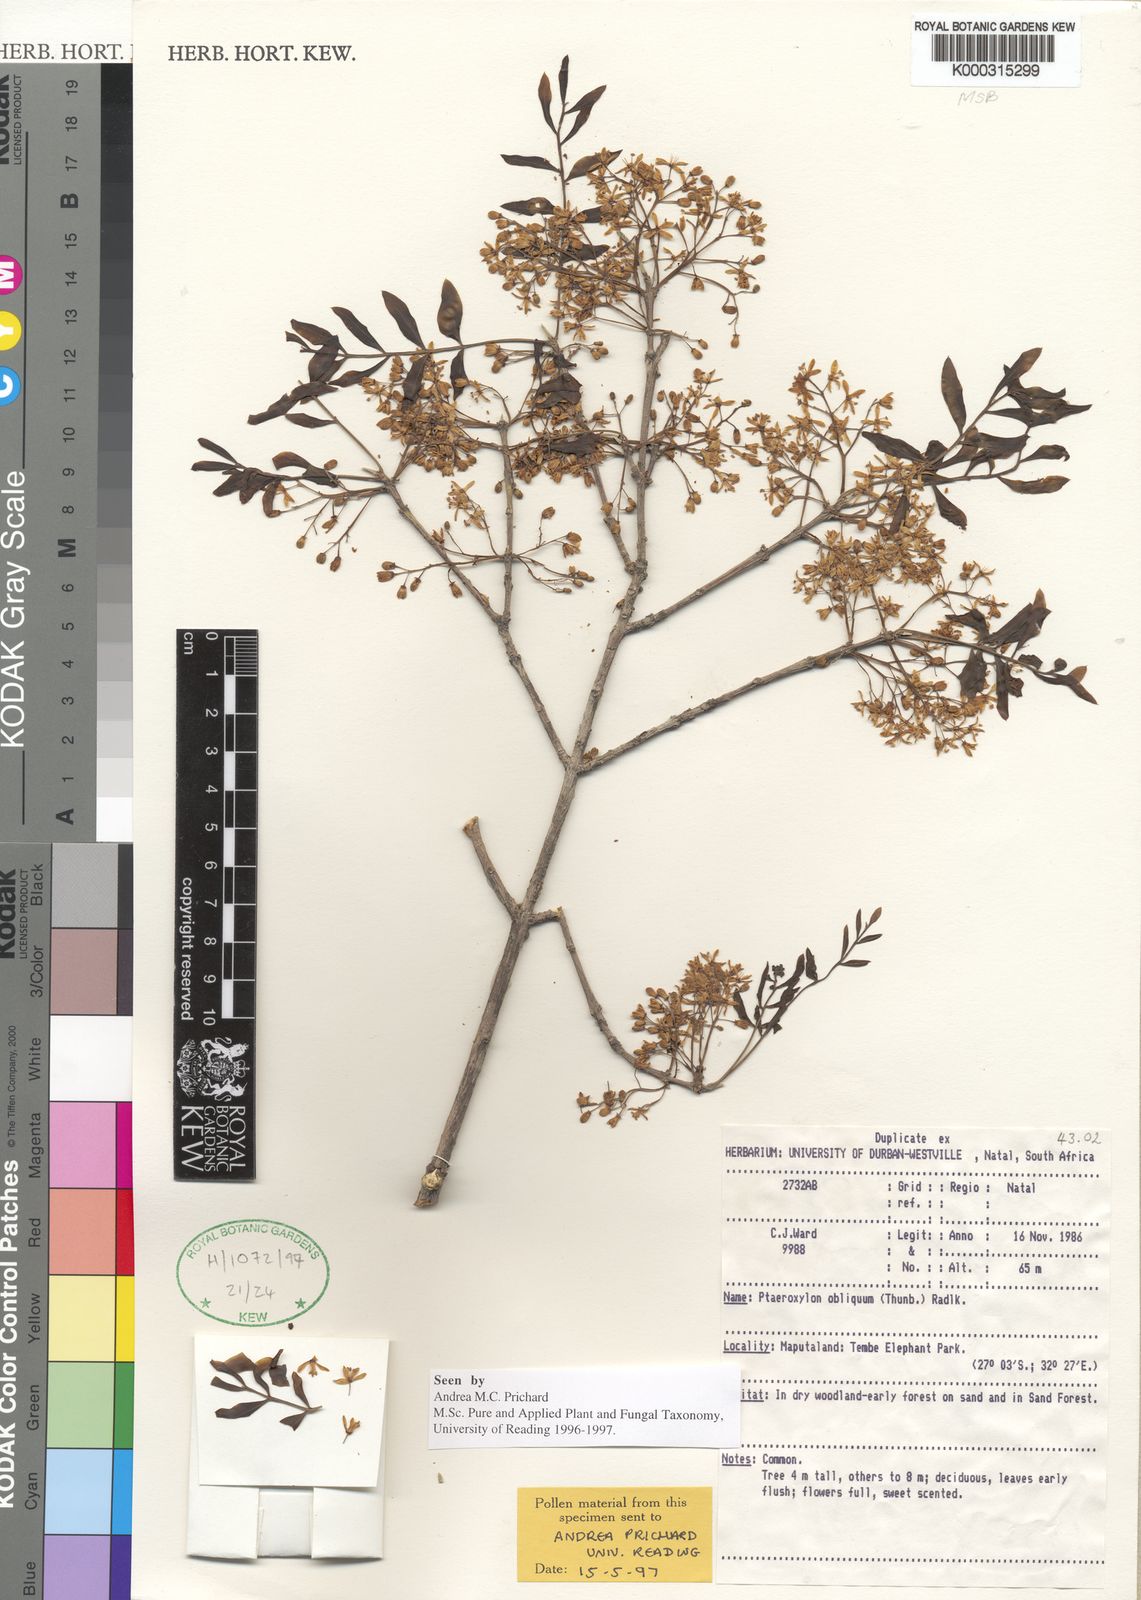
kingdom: Plantae
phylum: Tracheophyta
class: Magnoliopsida
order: Sapindales
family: Rutaceae
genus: Ptaeroxylon
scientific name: Ptaeroxylon obliquum
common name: Sneezewood
